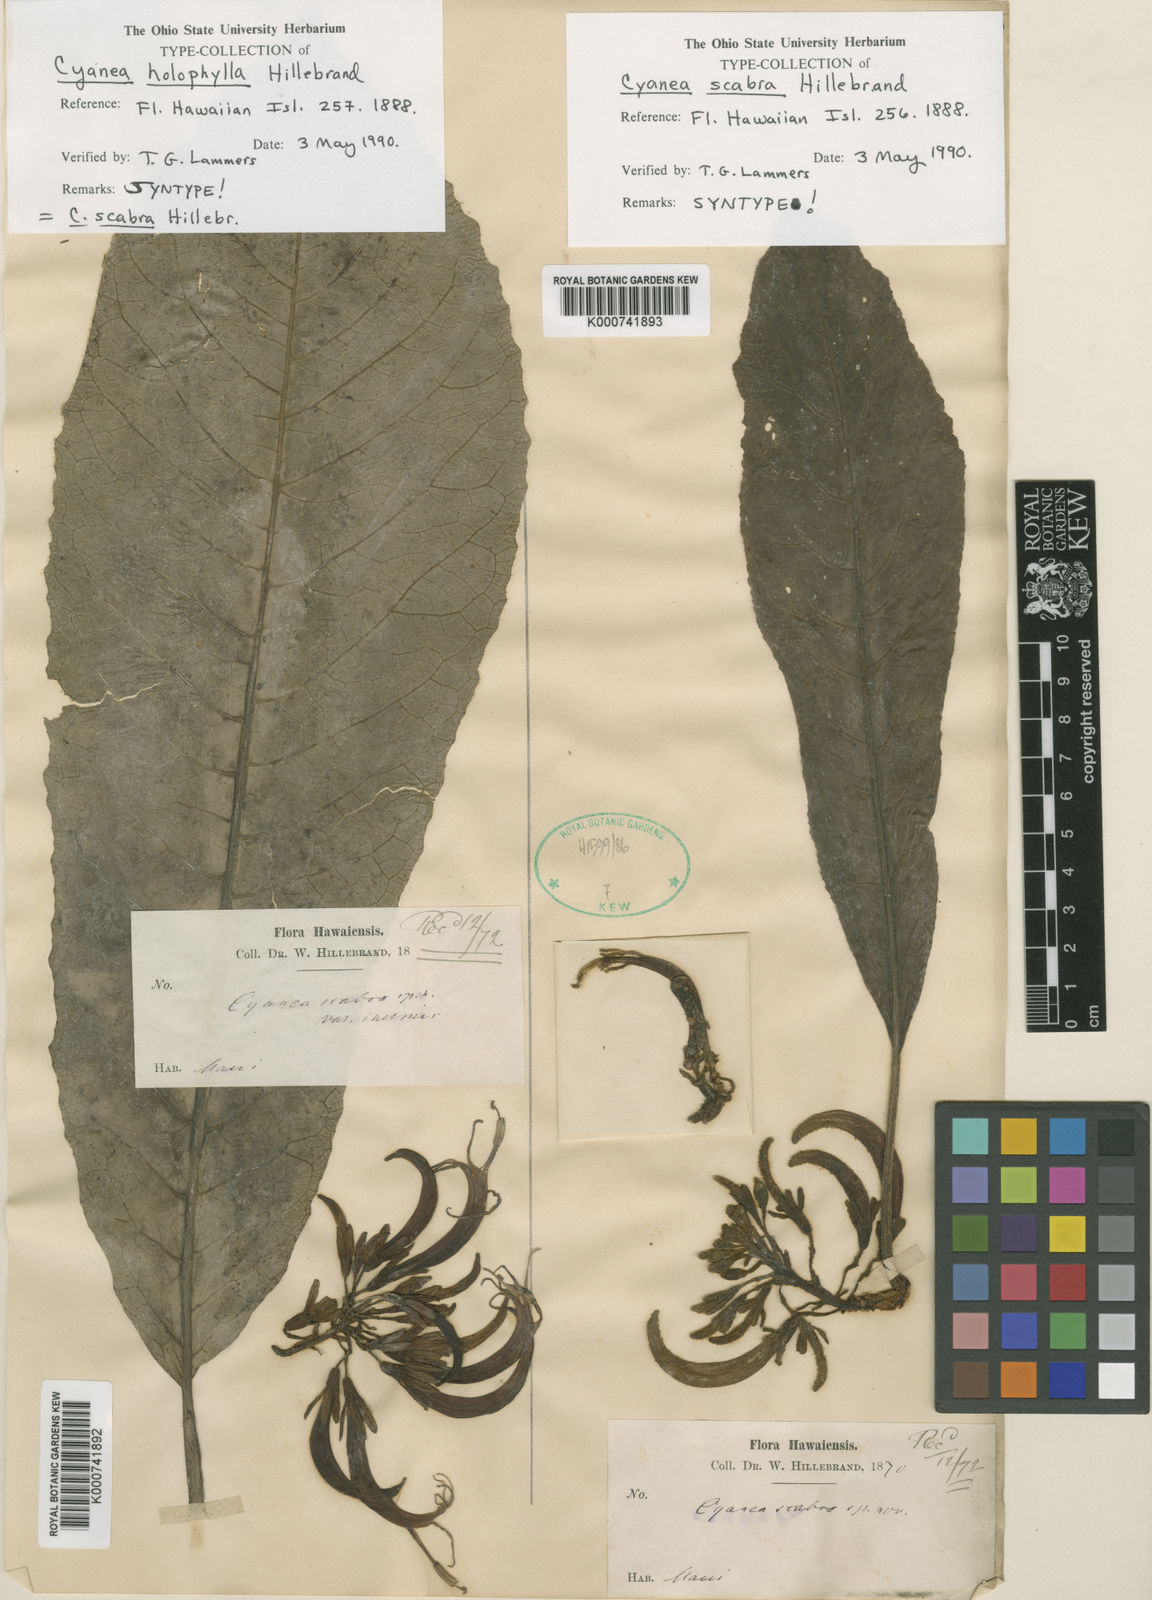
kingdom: Plantae
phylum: Tracheophyta
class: Magnoliopsida
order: Asterales
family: Campanulaceae
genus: Cyanea
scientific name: Cyanea scabra
